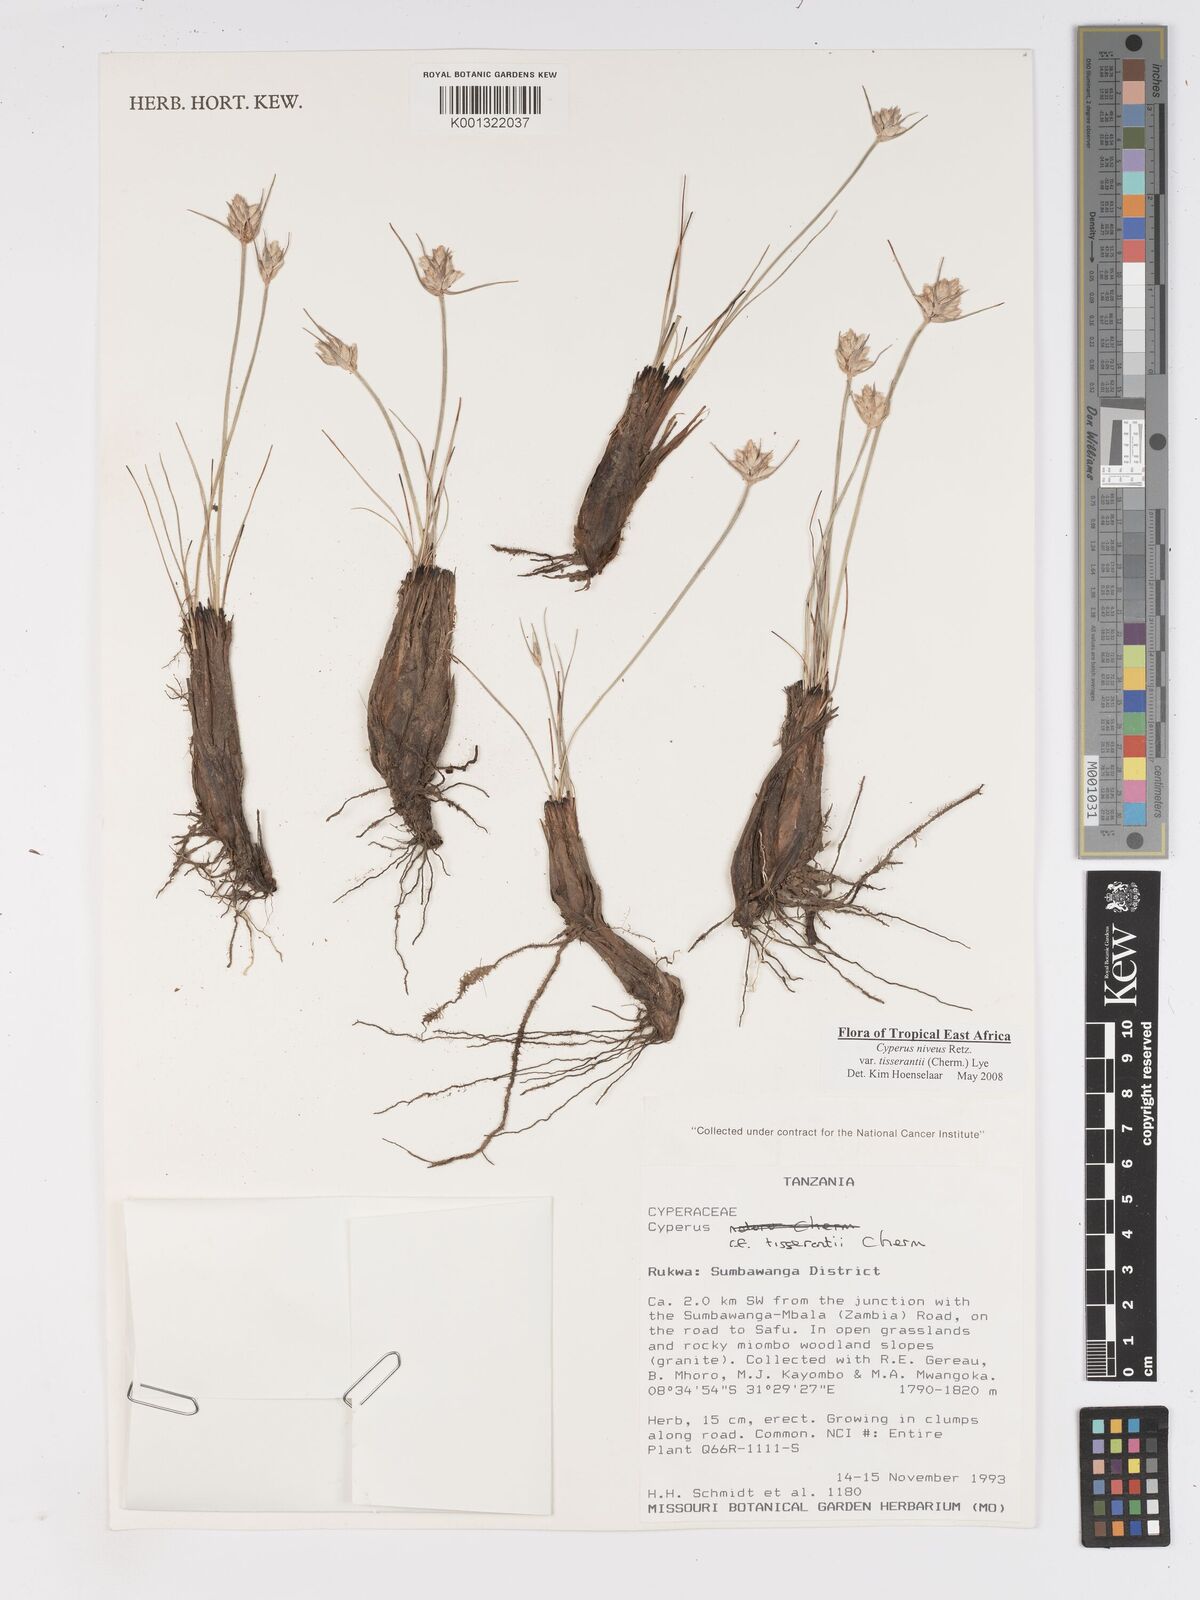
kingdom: Plantae
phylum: Tracheophyta
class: Liliopsida
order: Poales
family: Cyperaceae
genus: Cyperus
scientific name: Cyperus niveus
